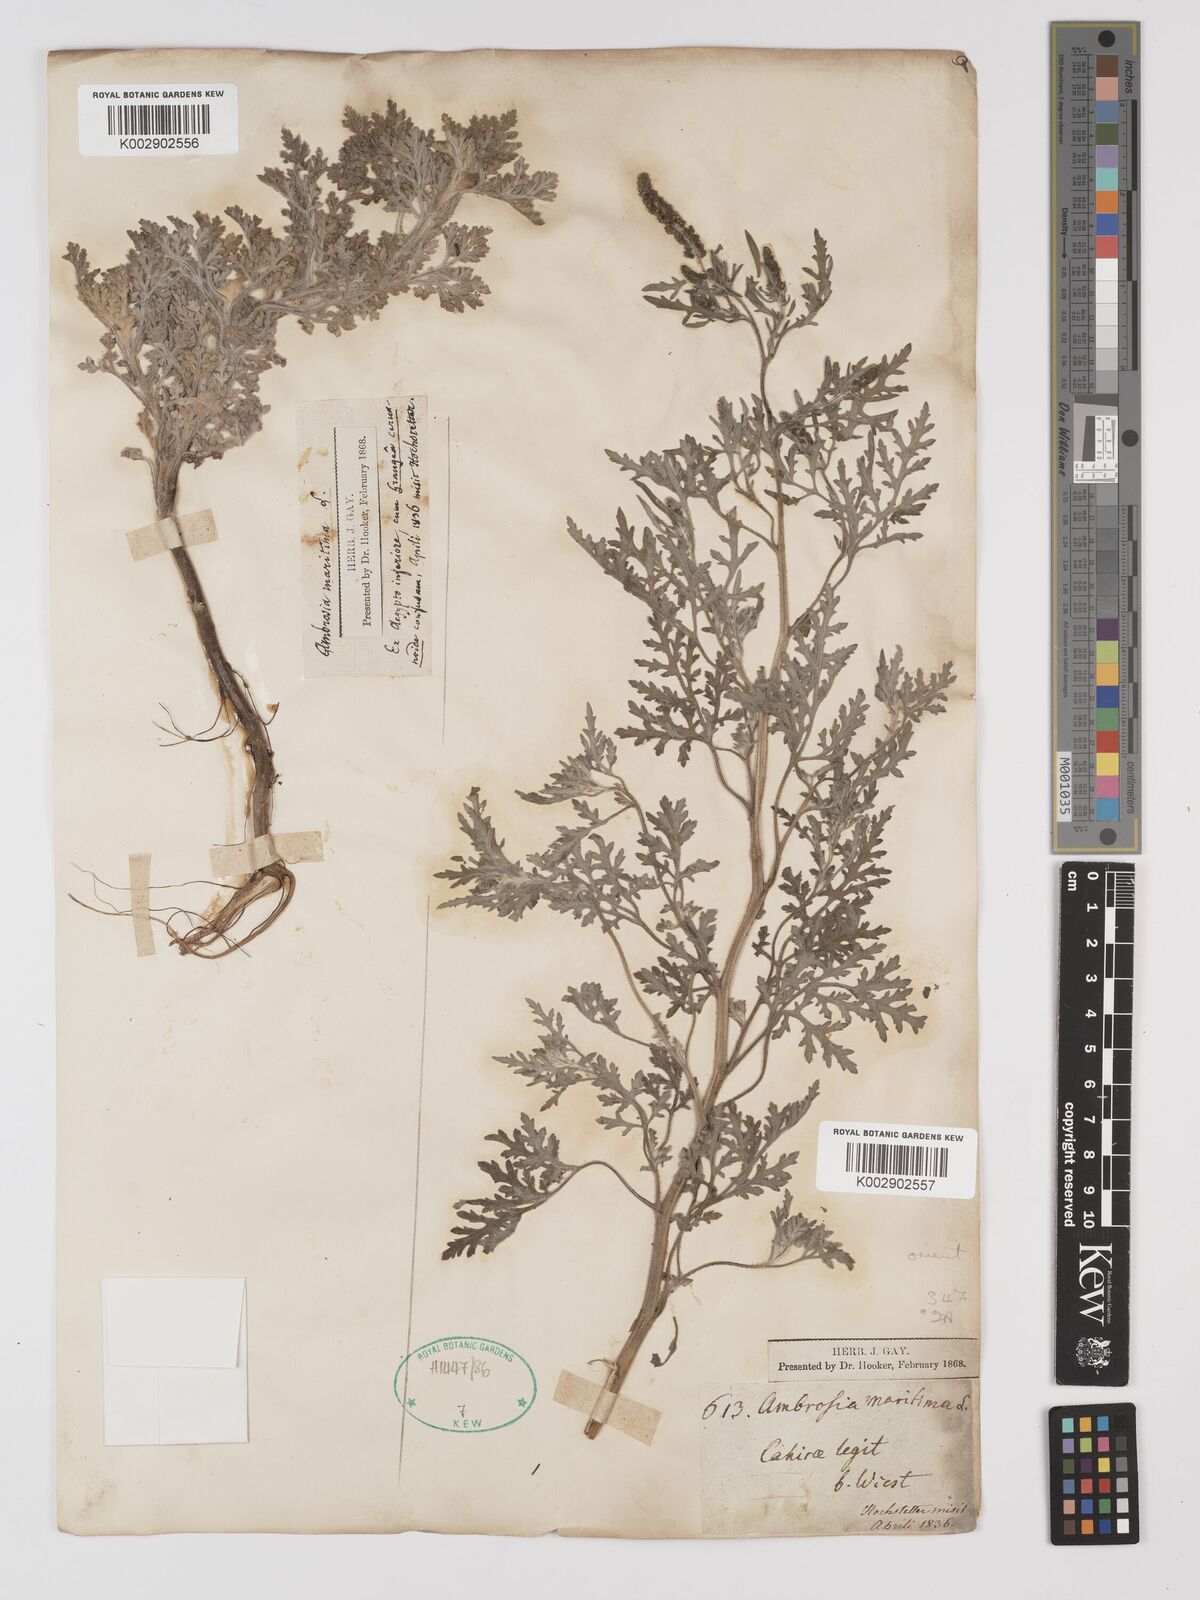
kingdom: Plantae
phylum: Tracheophyta
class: Magnoliopsida
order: Asterales
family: Asteraceae
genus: Ambrosia
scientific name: Ambrosia maritima
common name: Sea ambrosia
